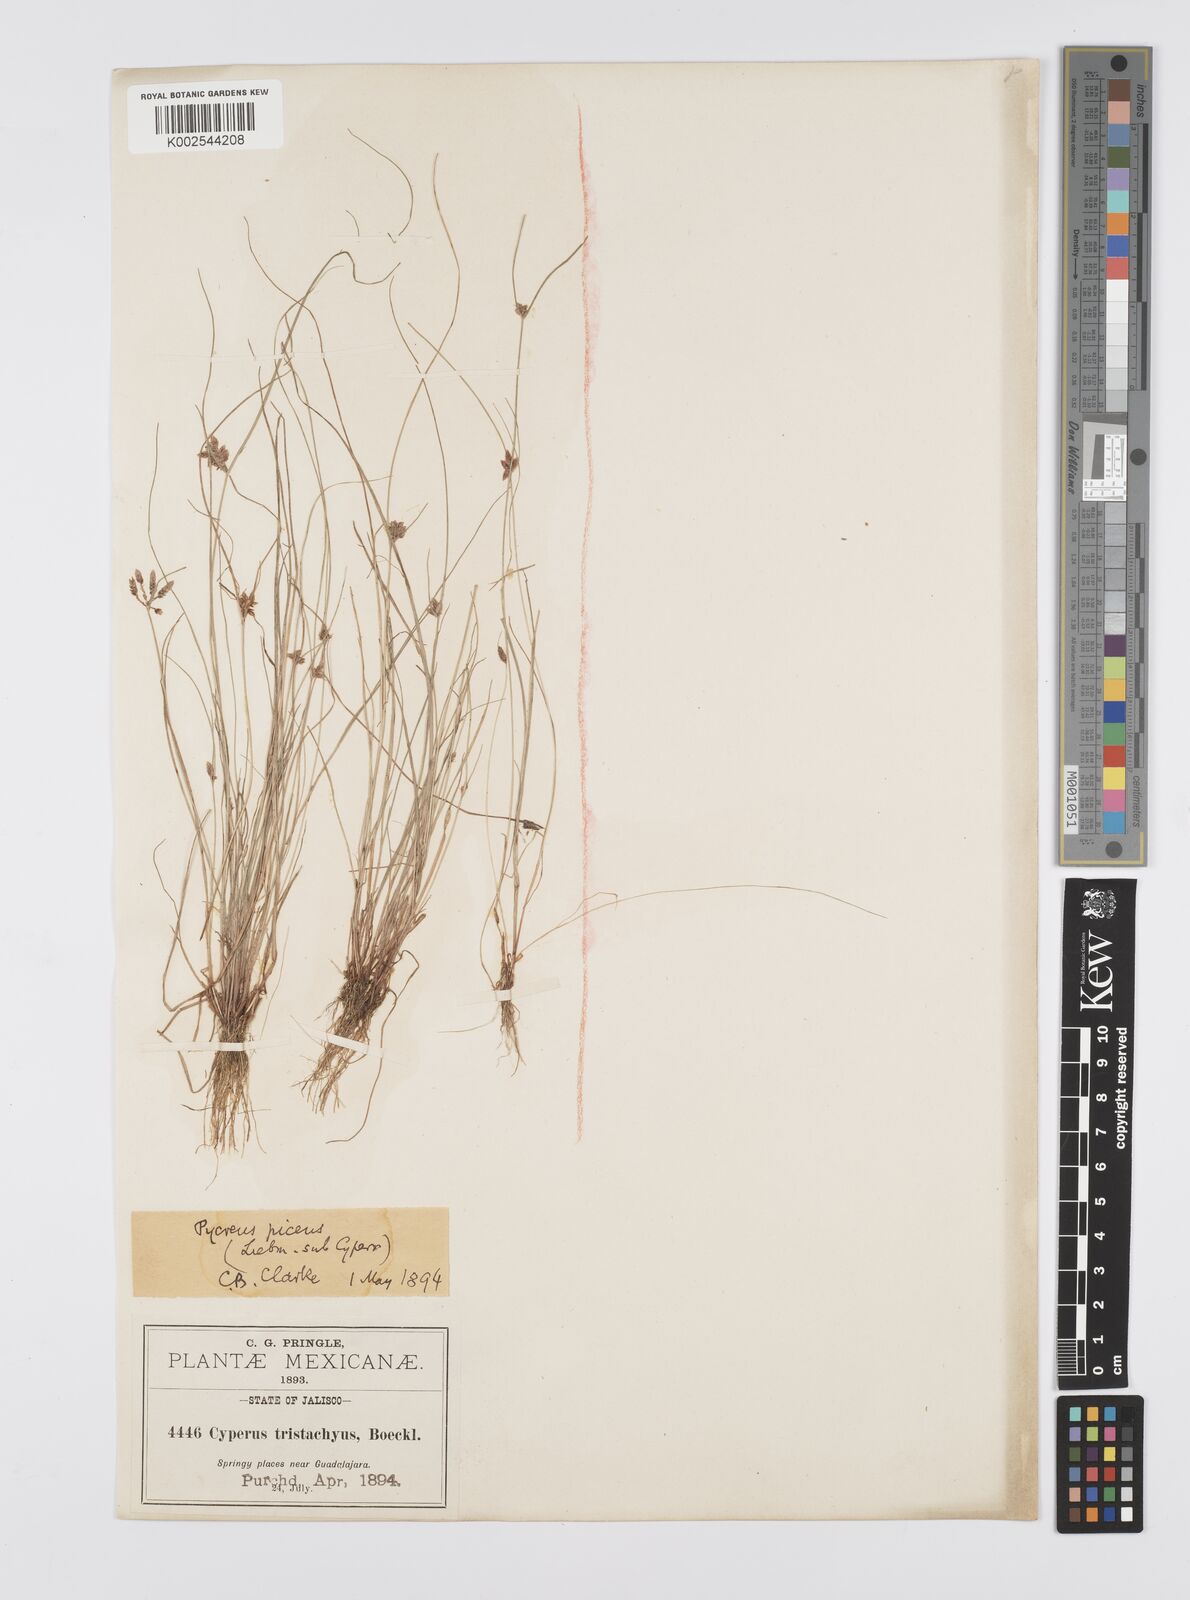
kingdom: Plantae
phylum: Tracheophyta
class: Liliopsida
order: Poales
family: Cyperaceae
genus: Cyperus
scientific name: Cyperus flavescens
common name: Yellow galingale
